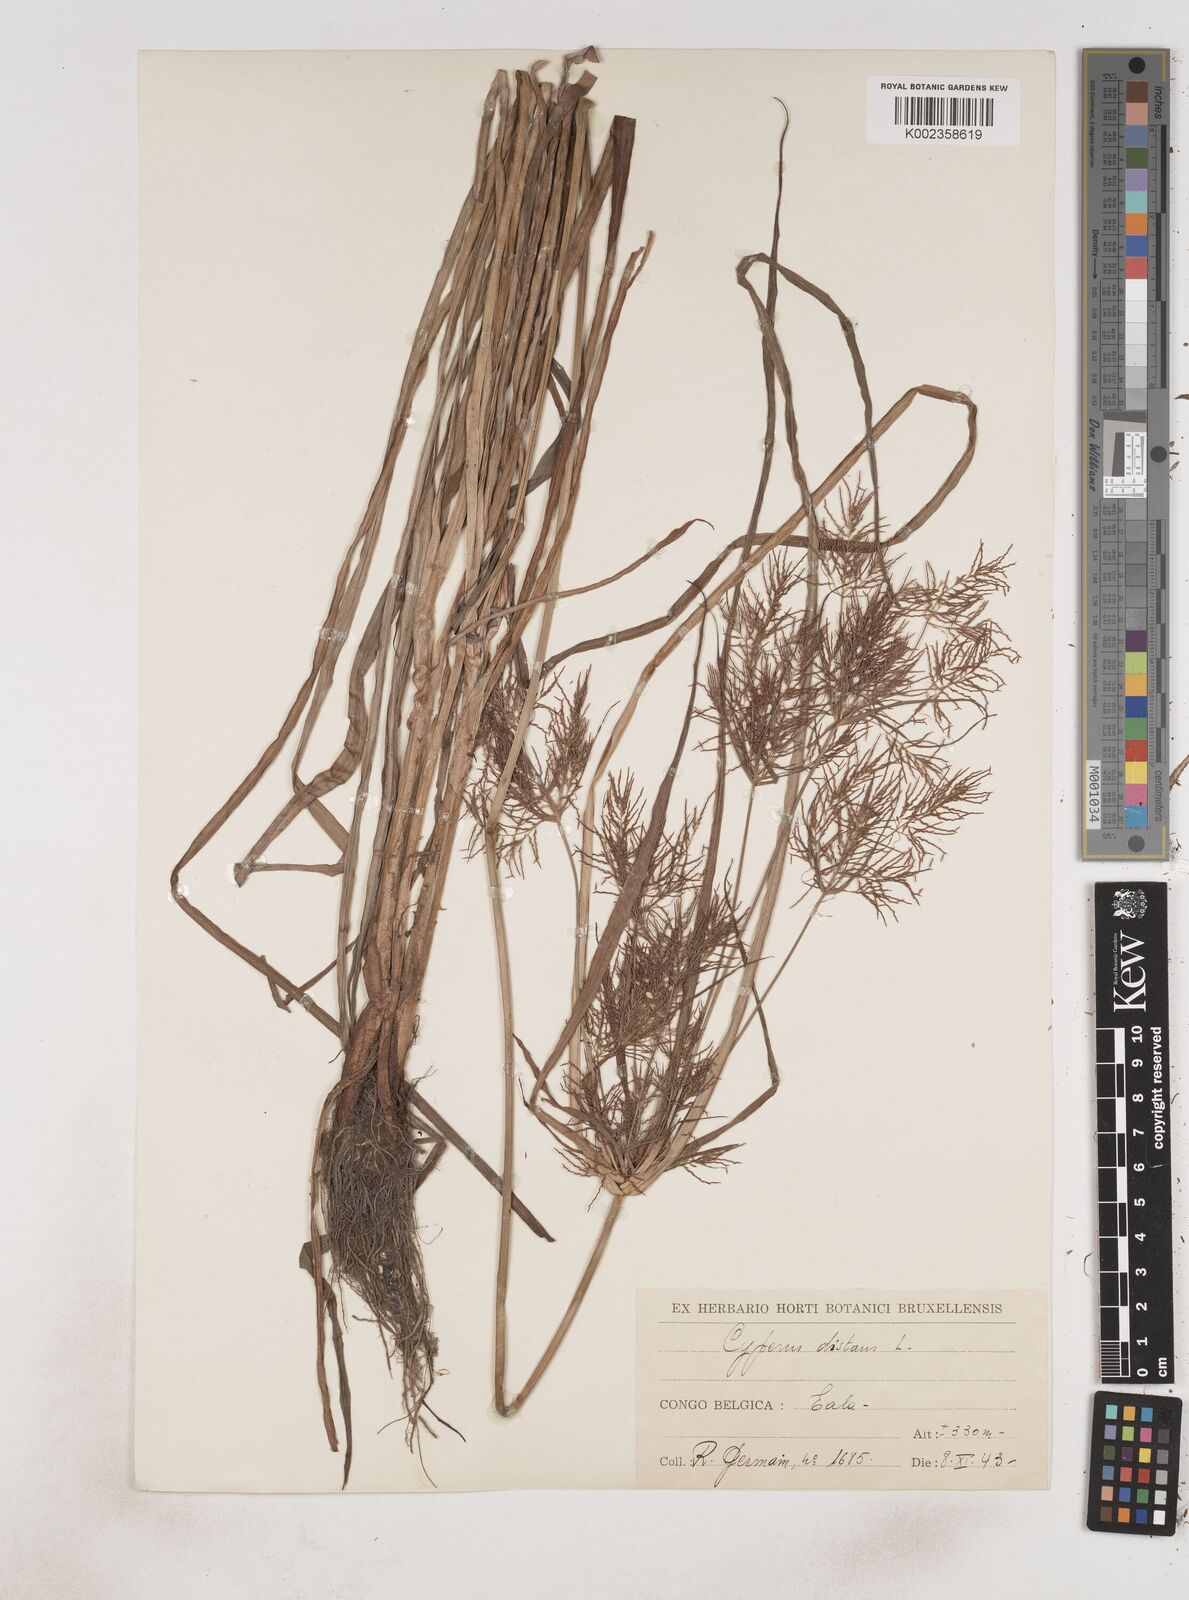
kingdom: Plantae
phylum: Tracheophyta
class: Liliopsida
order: Poales
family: Cyperaceae
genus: Cyperus
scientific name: Cyperus distans
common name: Slender cyperus
